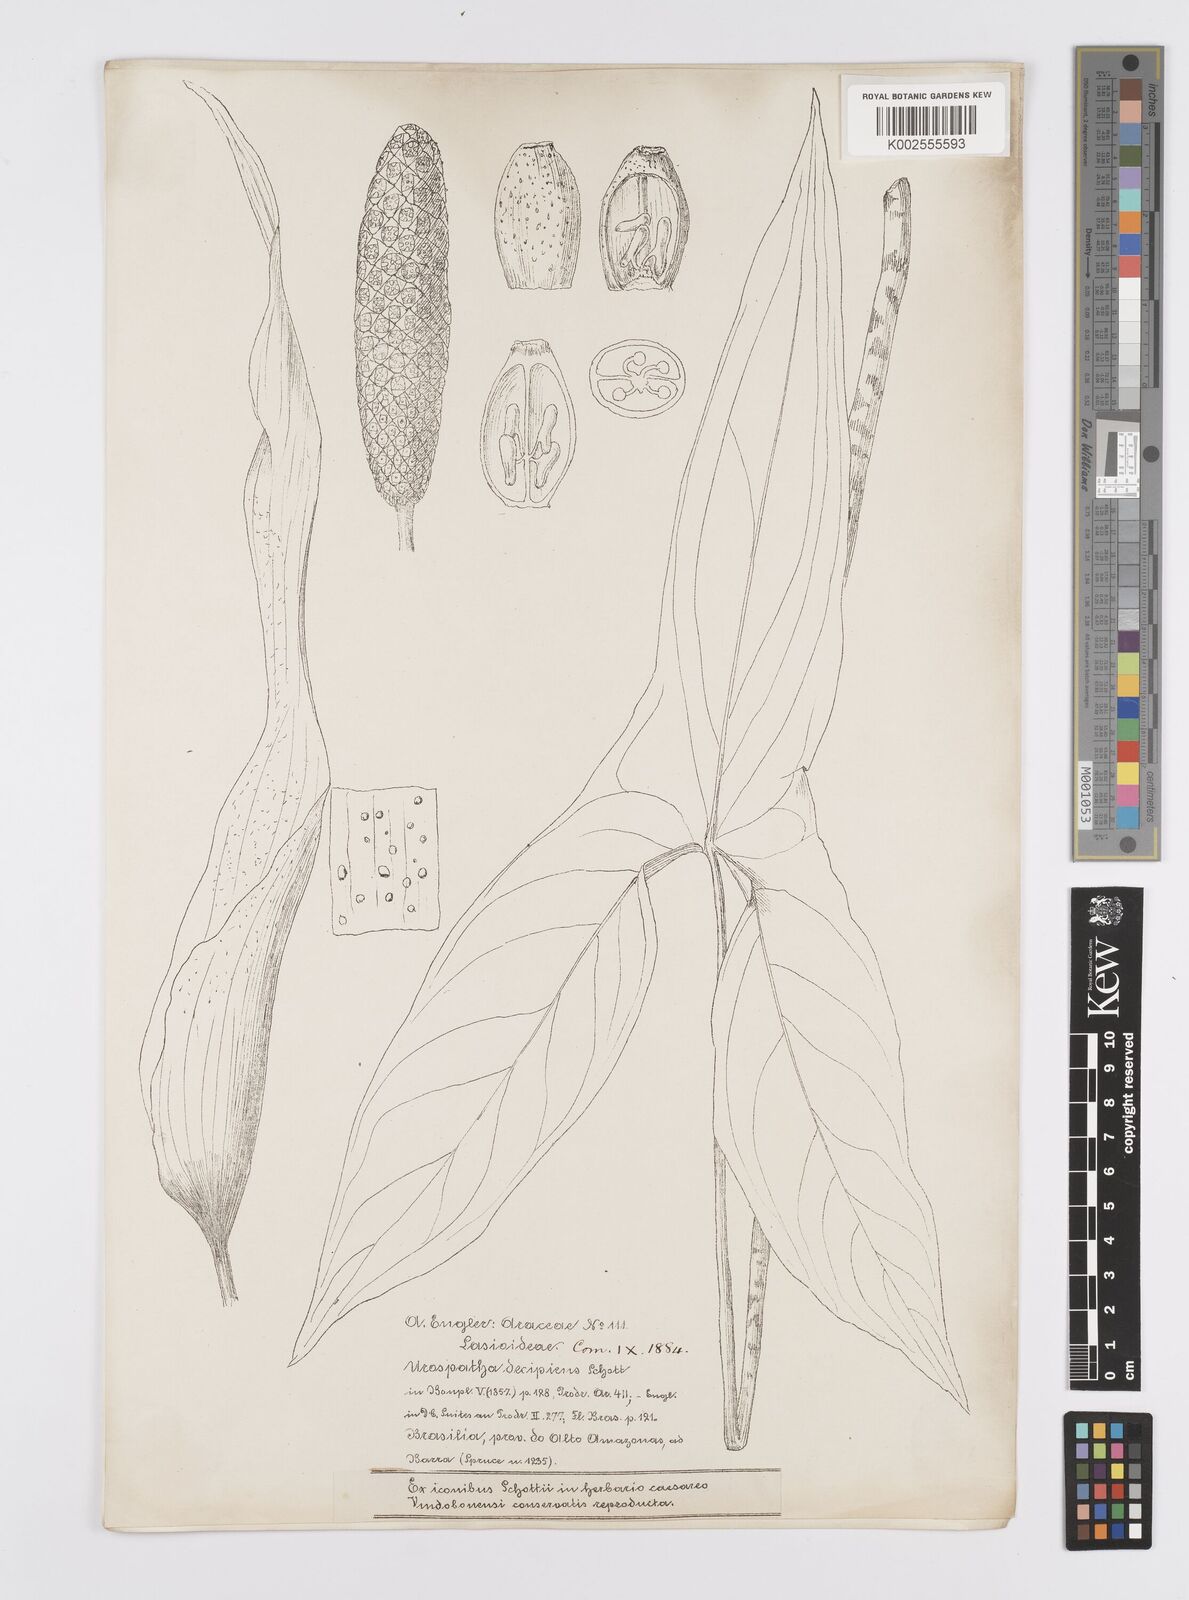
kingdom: Plantae
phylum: Tracheophyta
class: Liliopsida
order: Alismatales
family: Araceae
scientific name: Araceae
